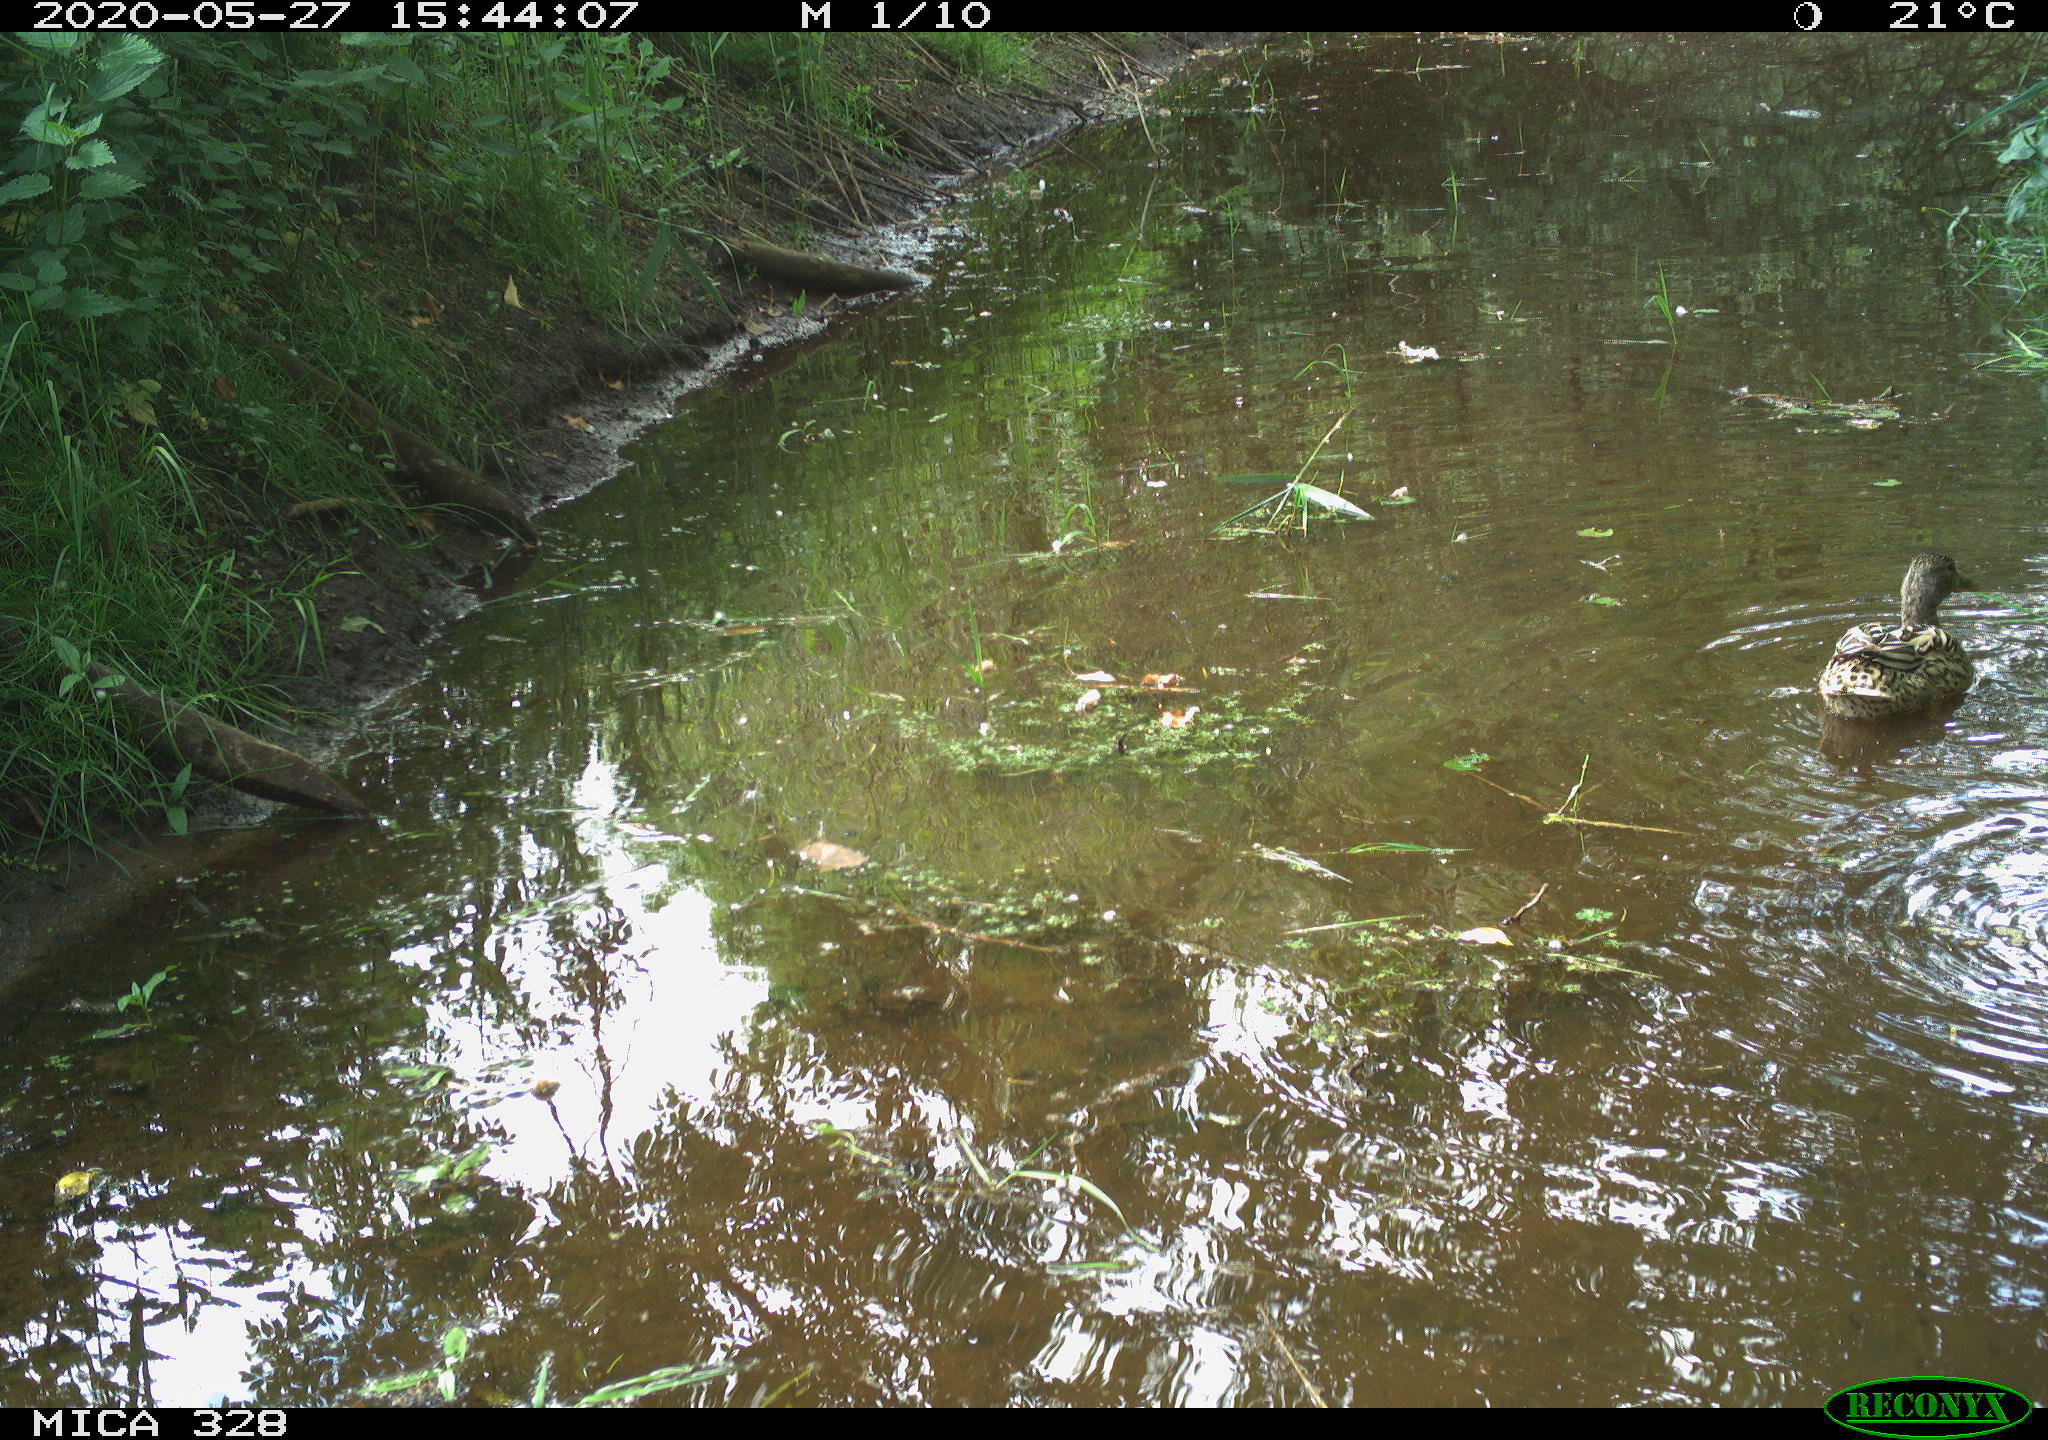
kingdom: Animalia
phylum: Chordata
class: Aves
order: Anseriformes
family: Anatidae
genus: Anas
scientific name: Anas platyrhynchos
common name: Mallard
